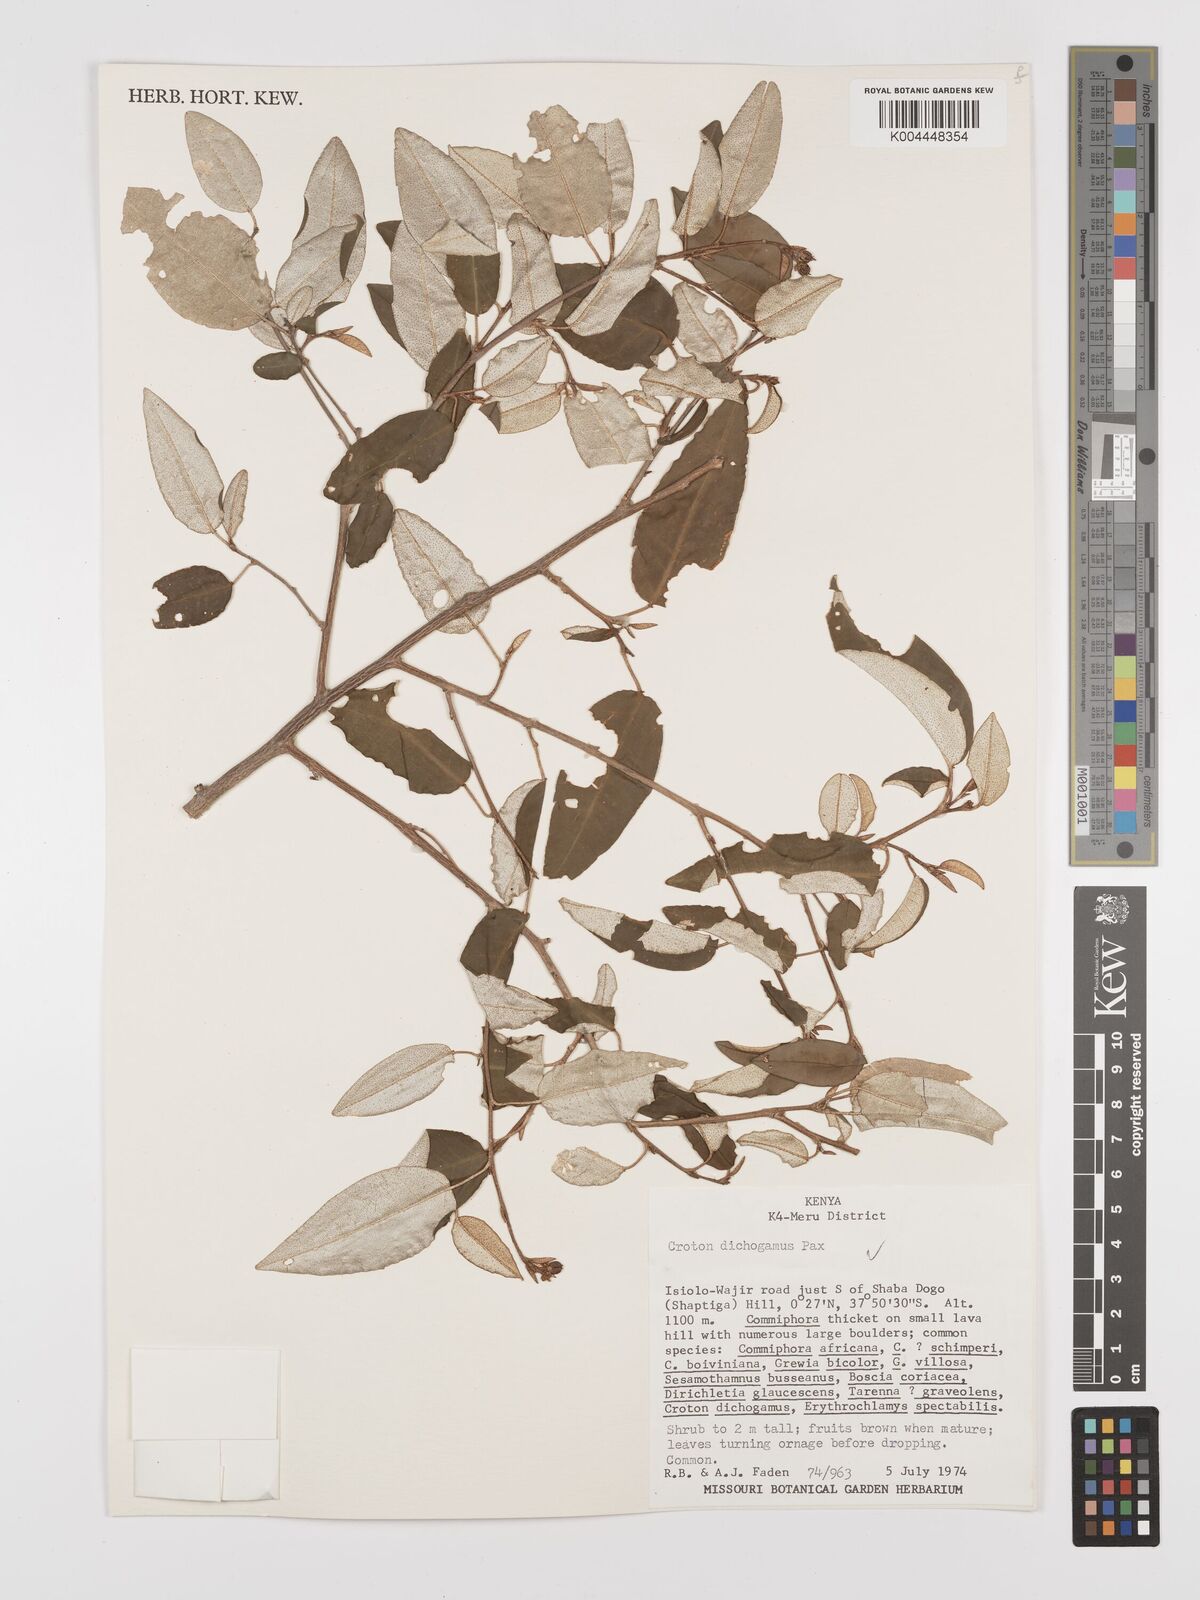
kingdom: Plantae
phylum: Tracheophyta
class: Magnoliopsida
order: Malpighiales
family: Euphorbiaceae
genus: Croton
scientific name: Croton dichogamus
